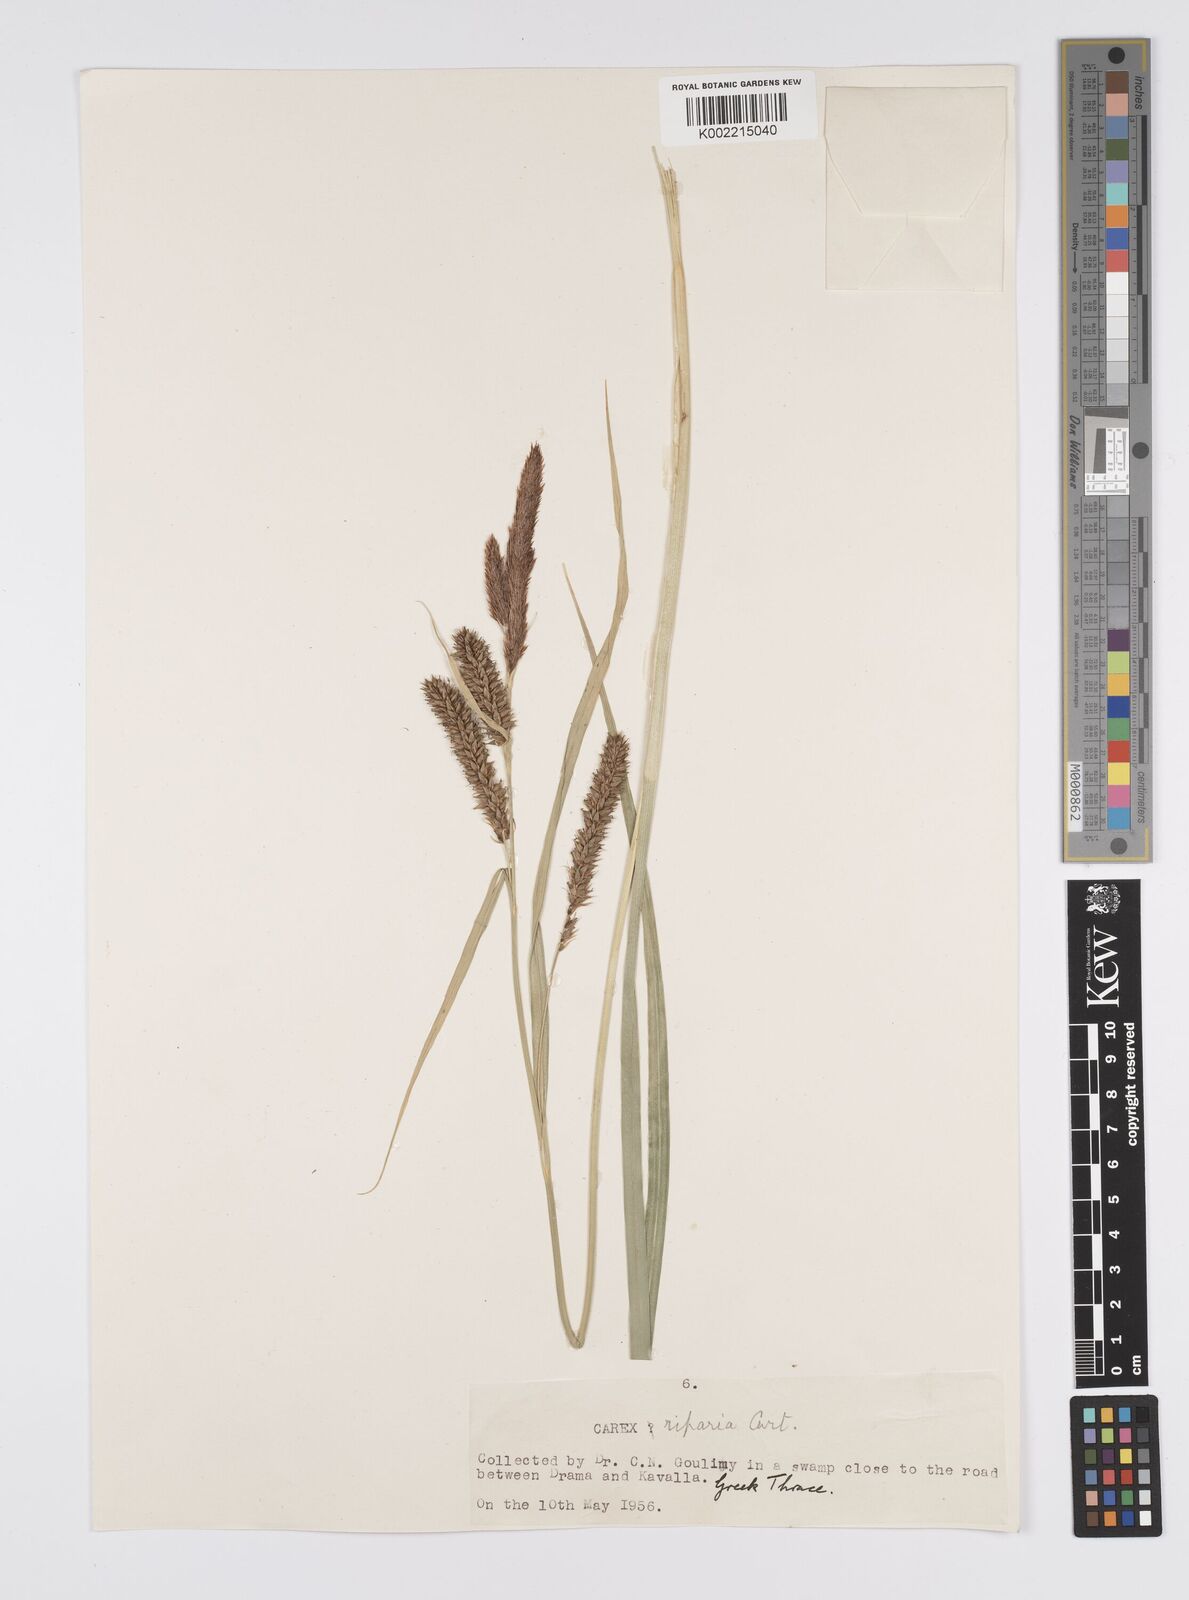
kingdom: Plantae
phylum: Tracheophyta
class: Liliopsida
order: Poales
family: Cyperaceae
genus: Carex
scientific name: Carex riparia
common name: Greater pond-sedge
